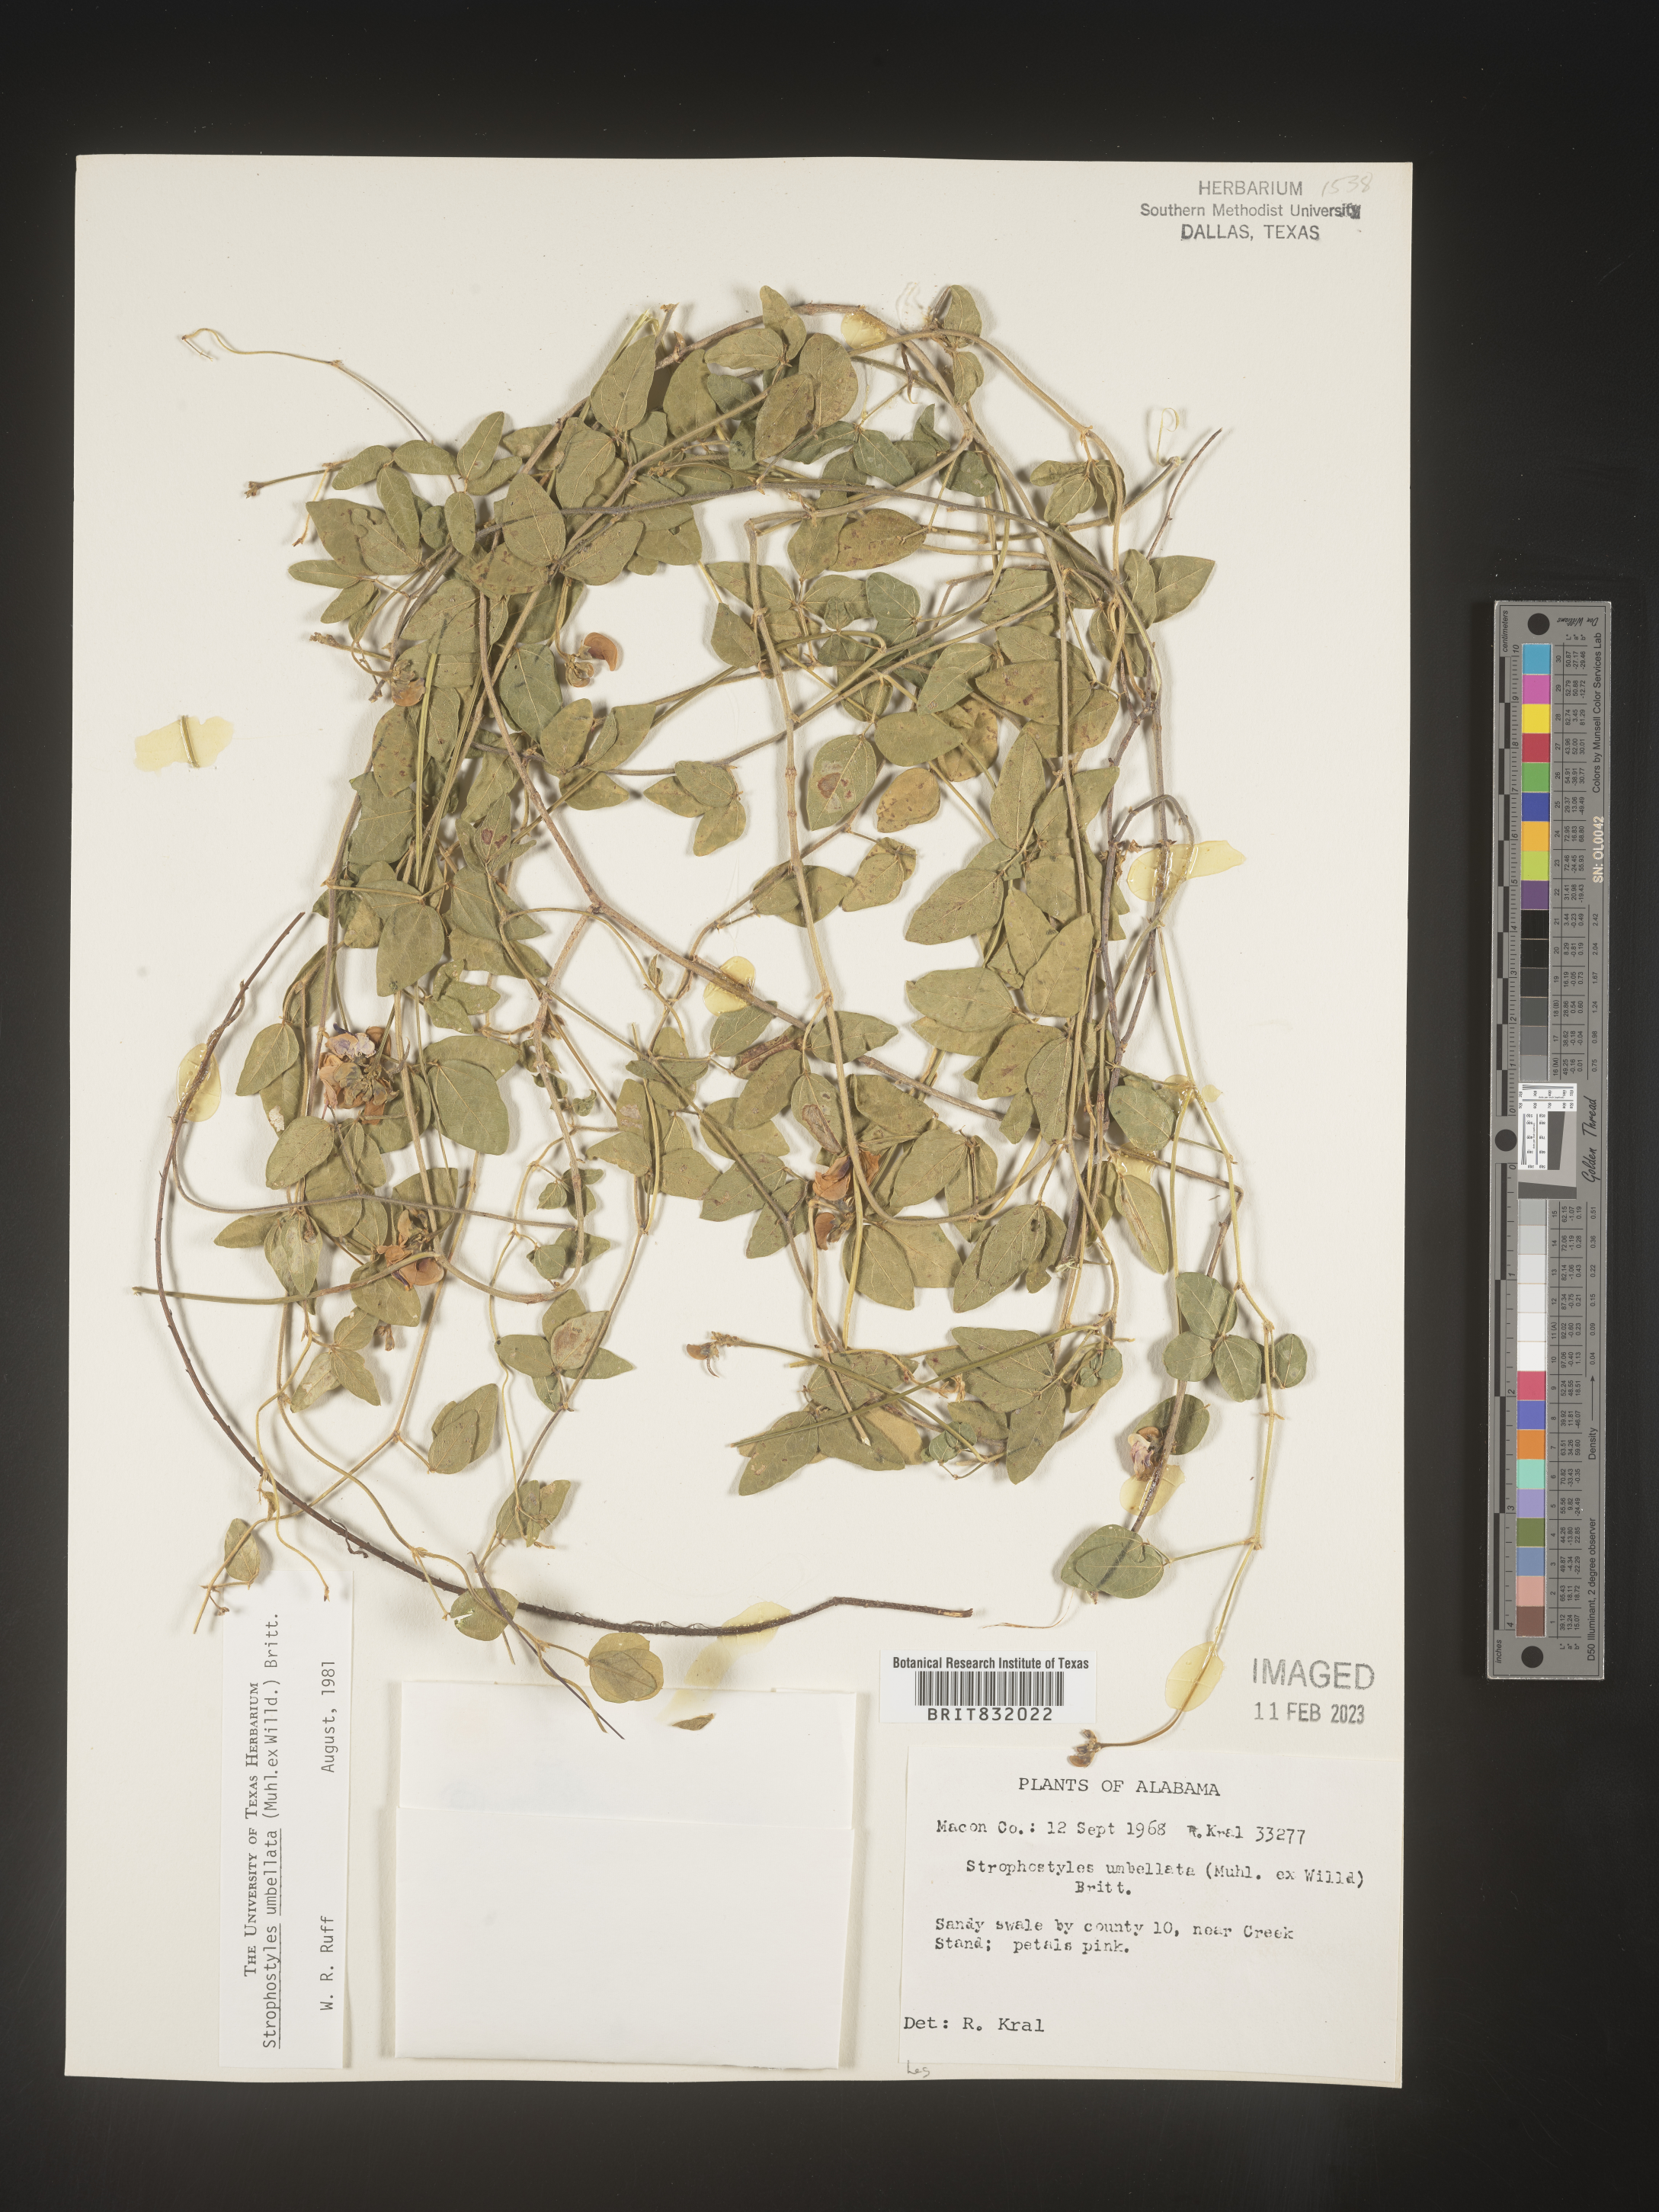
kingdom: Plantae
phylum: Tracheophyta
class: Magnoliopsida
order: Fabales
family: Fabaceae
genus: Strophostyles
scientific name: Strophostyles umbellata
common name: Perennial wild bean
